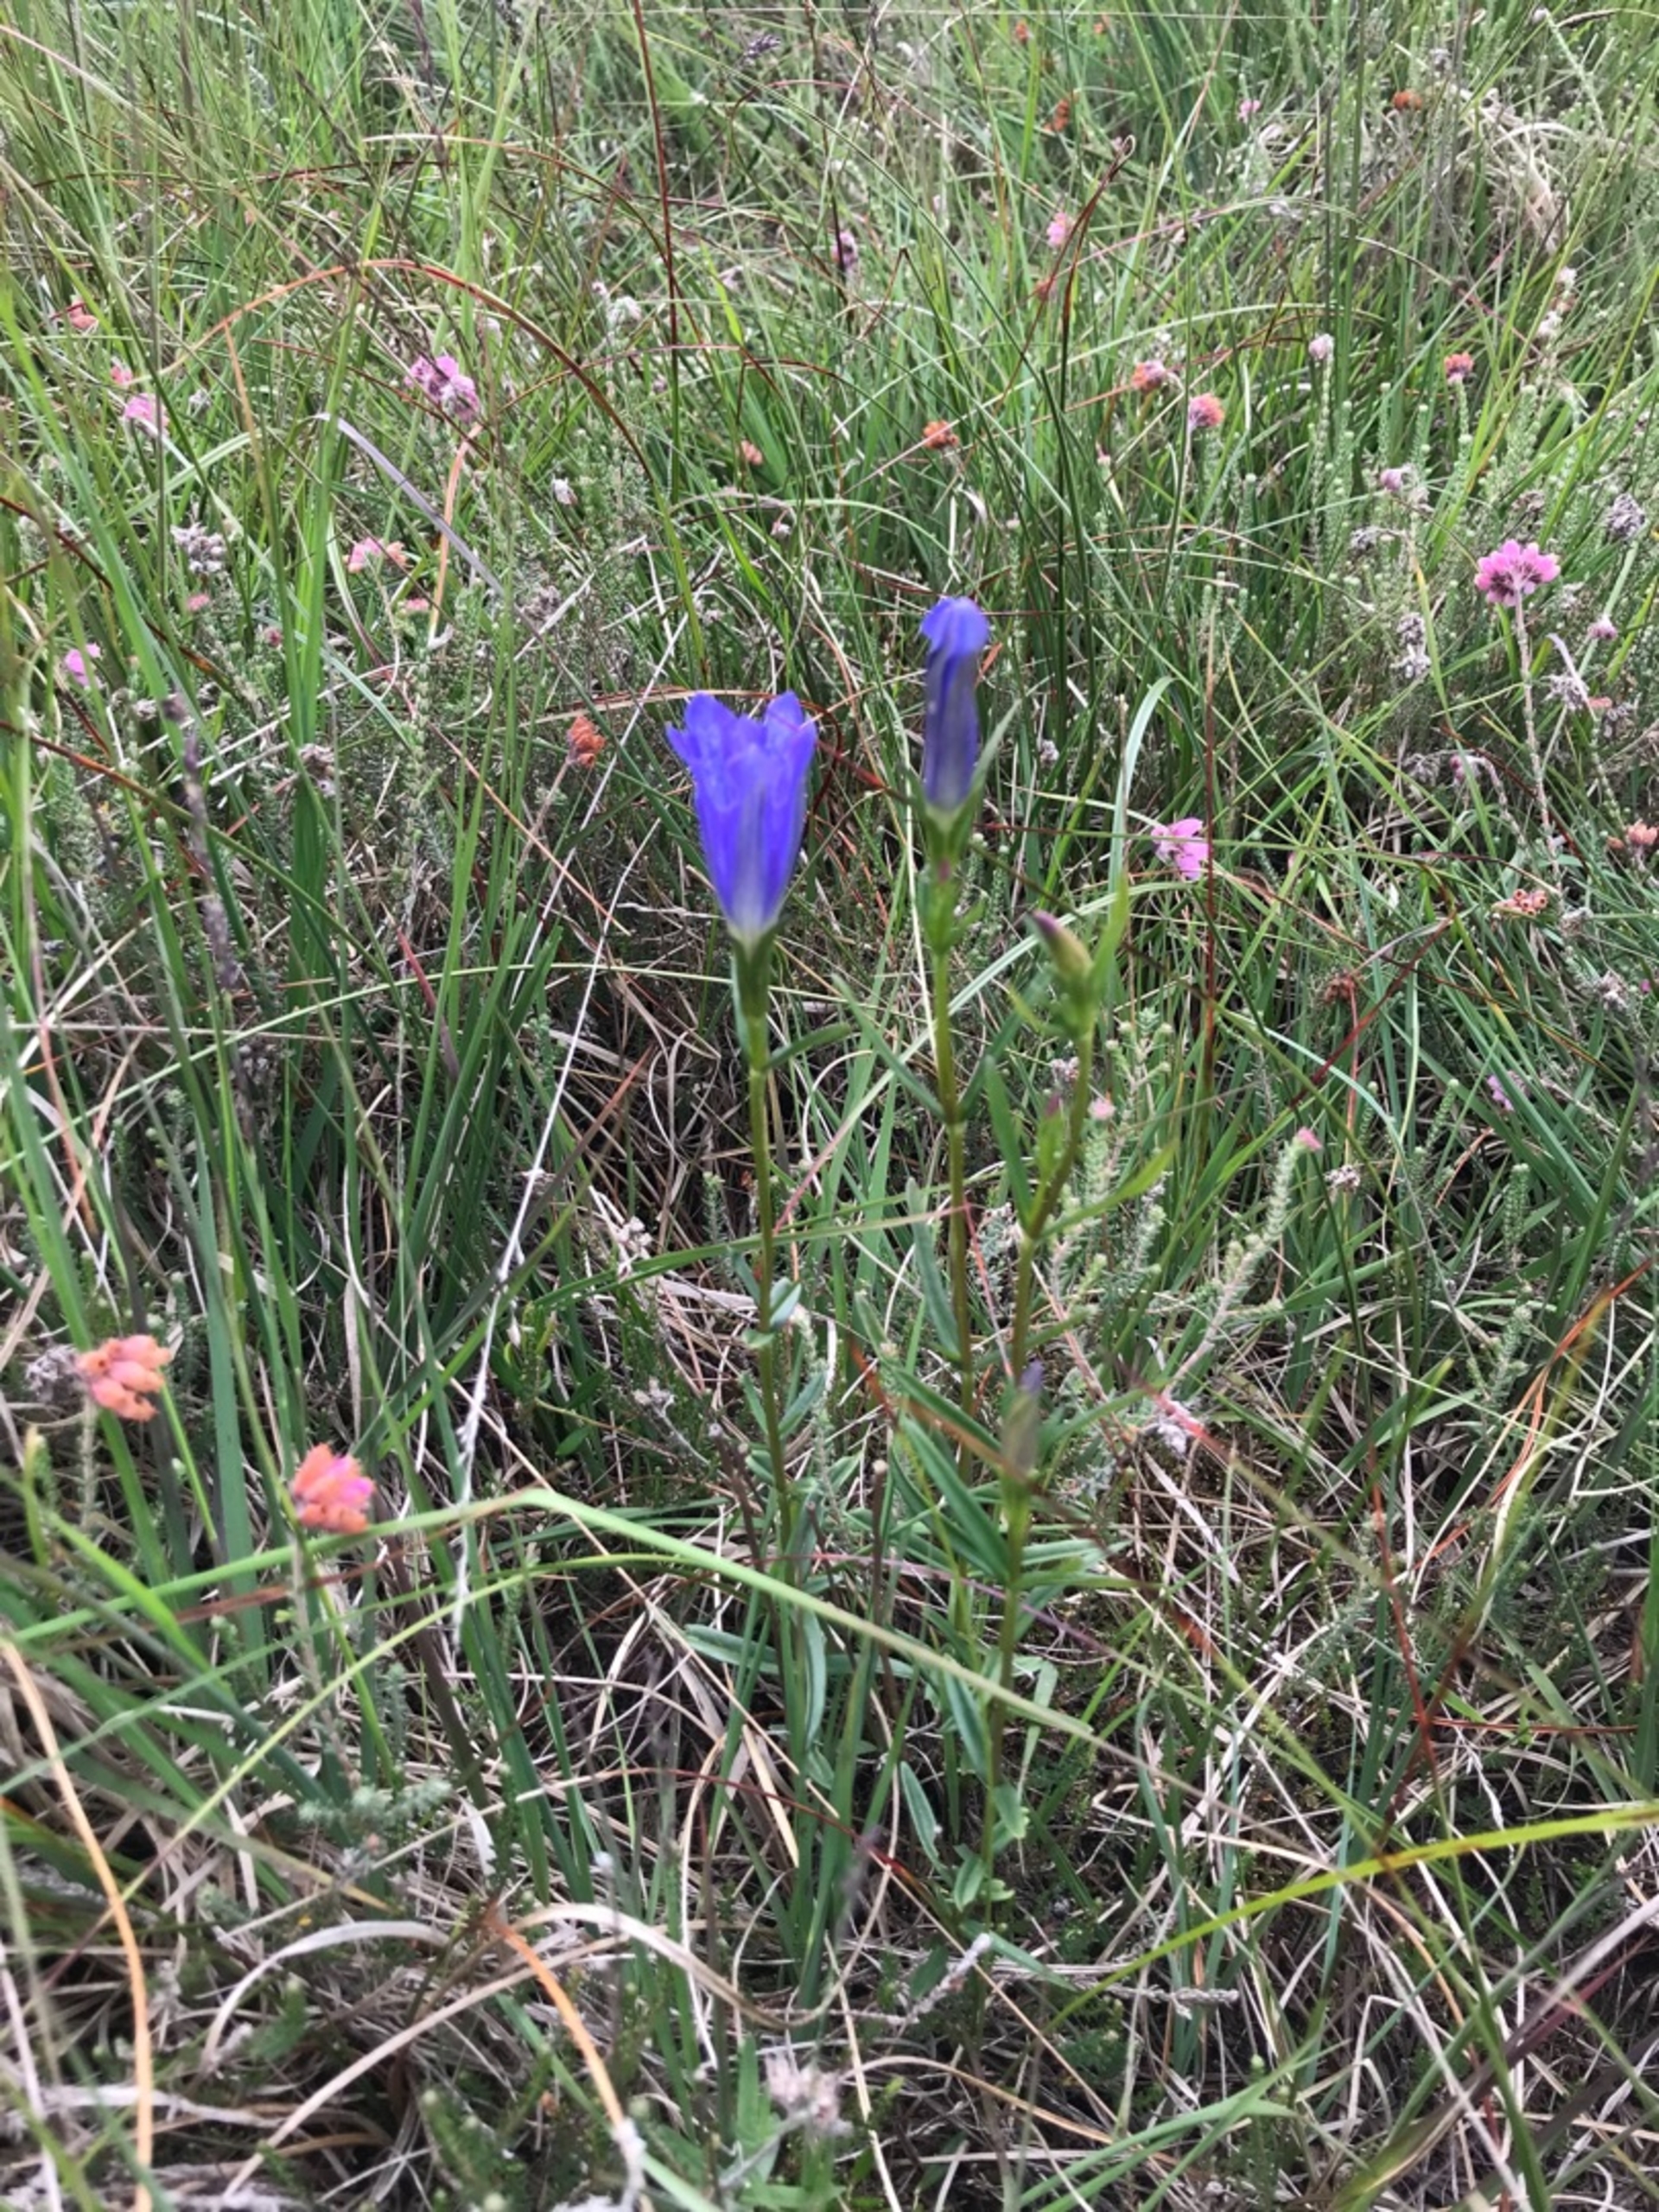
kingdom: Plantae
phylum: Tracheophyta
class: Magnoliopsida
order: Gentianales
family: Gentianaceae
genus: Gentiana
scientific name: Gentiana pneumonanthe
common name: Klokke-ensian
